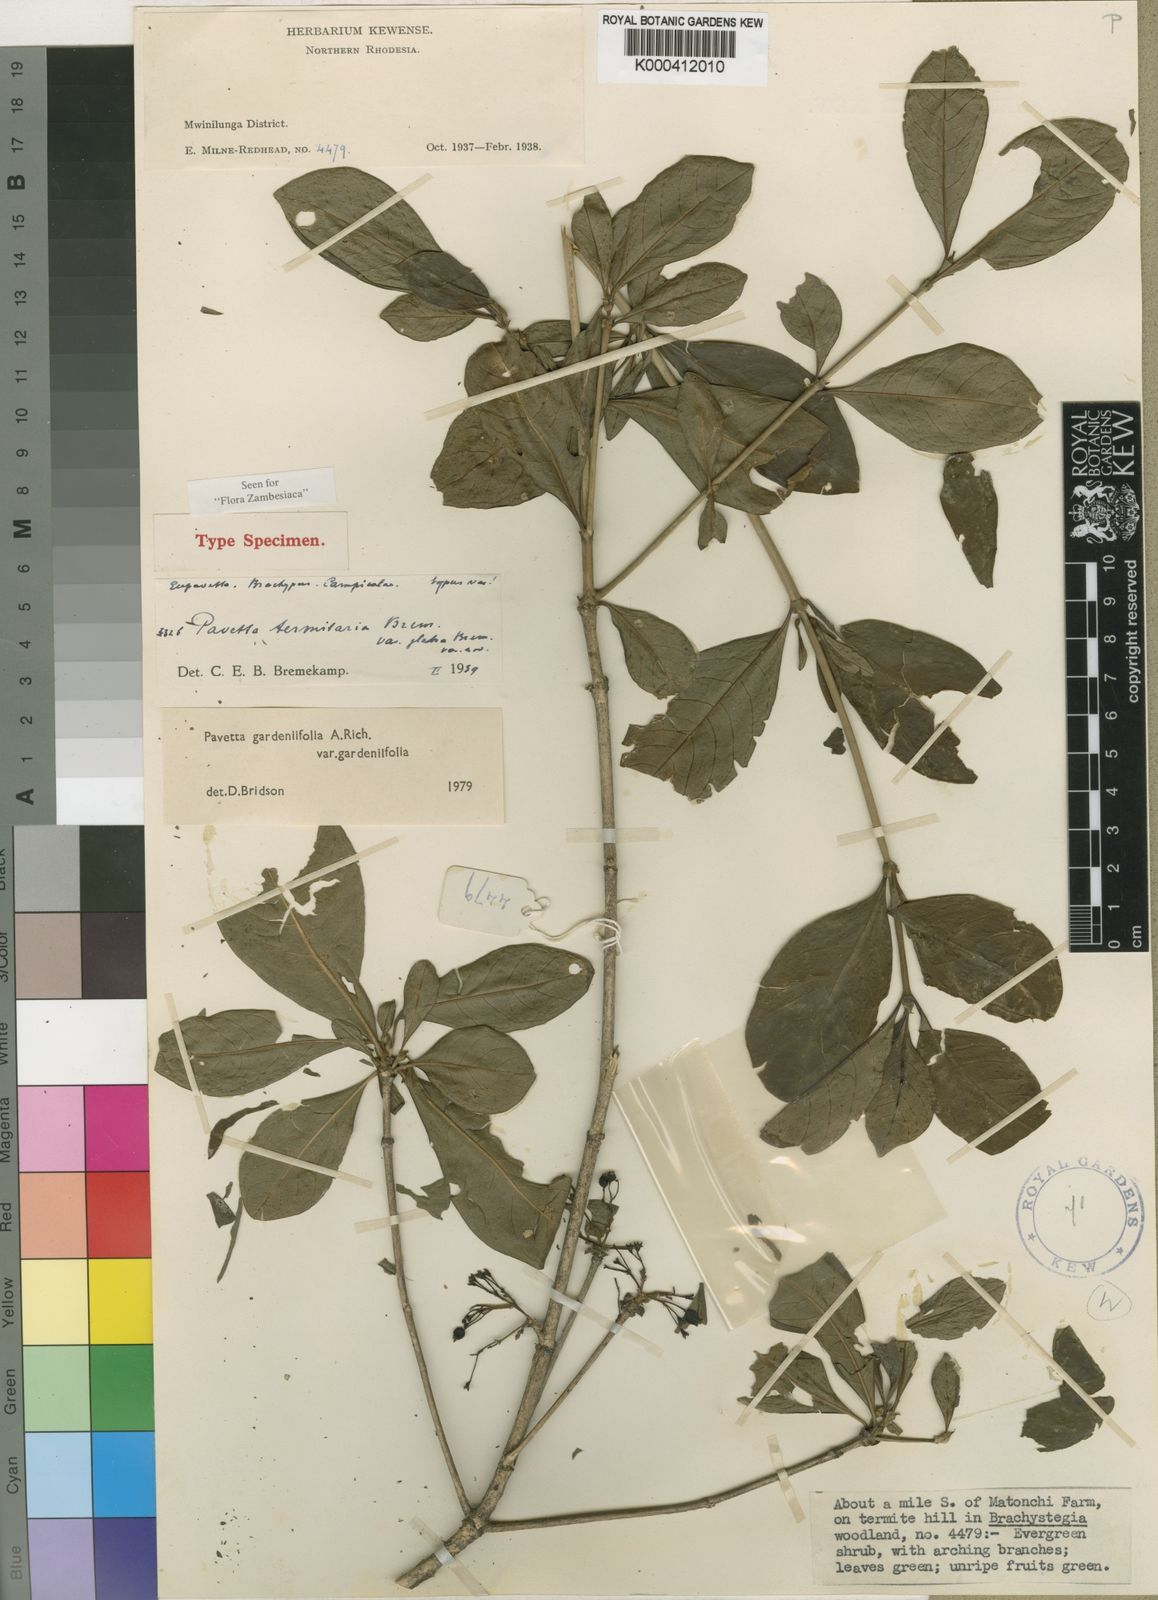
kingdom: Plantae
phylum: Tracheophyta
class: Magnoliopsida
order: Gentianales
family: Rubiaceae
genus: Pavetta
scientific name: Pavetta gardeniifolia
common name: Common brides-bush
